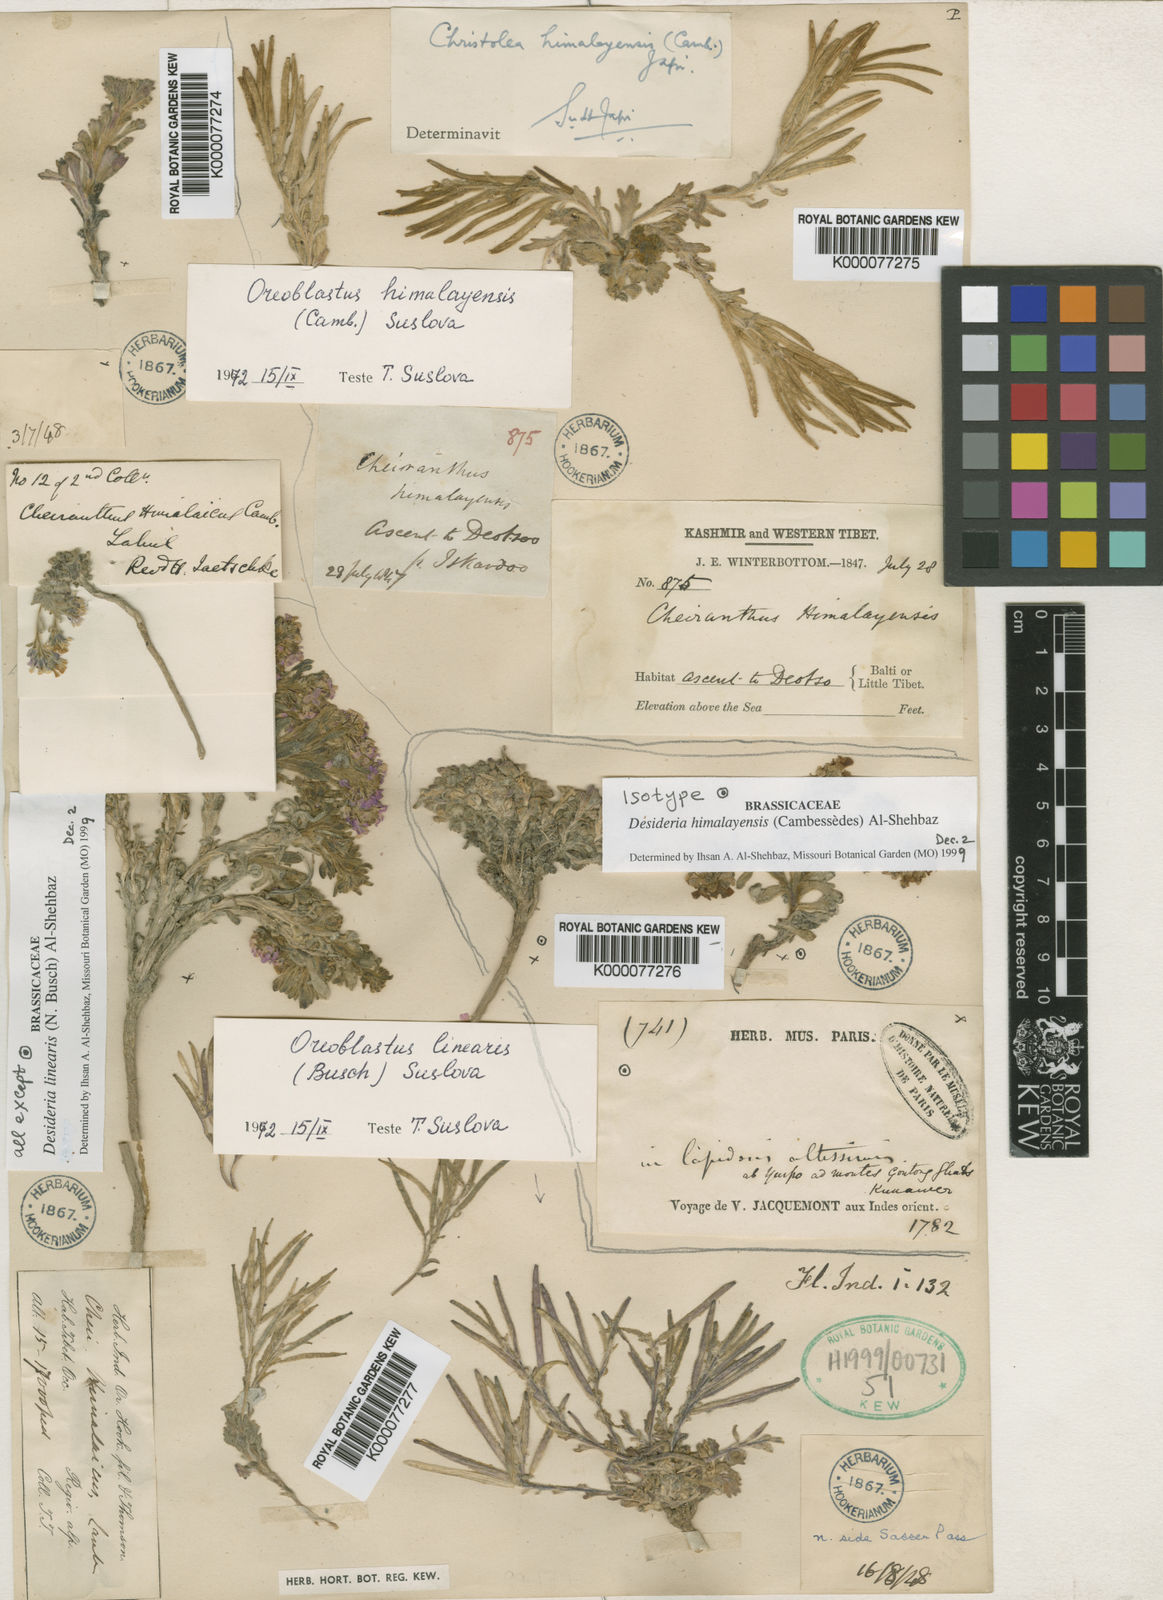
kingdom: Plantae
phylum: Tracheophyta
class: Magnoliopsida
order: Brassicales
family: Brassicaceae
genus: Solms-laubachia
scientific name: Solms-laubachia himalayensis
